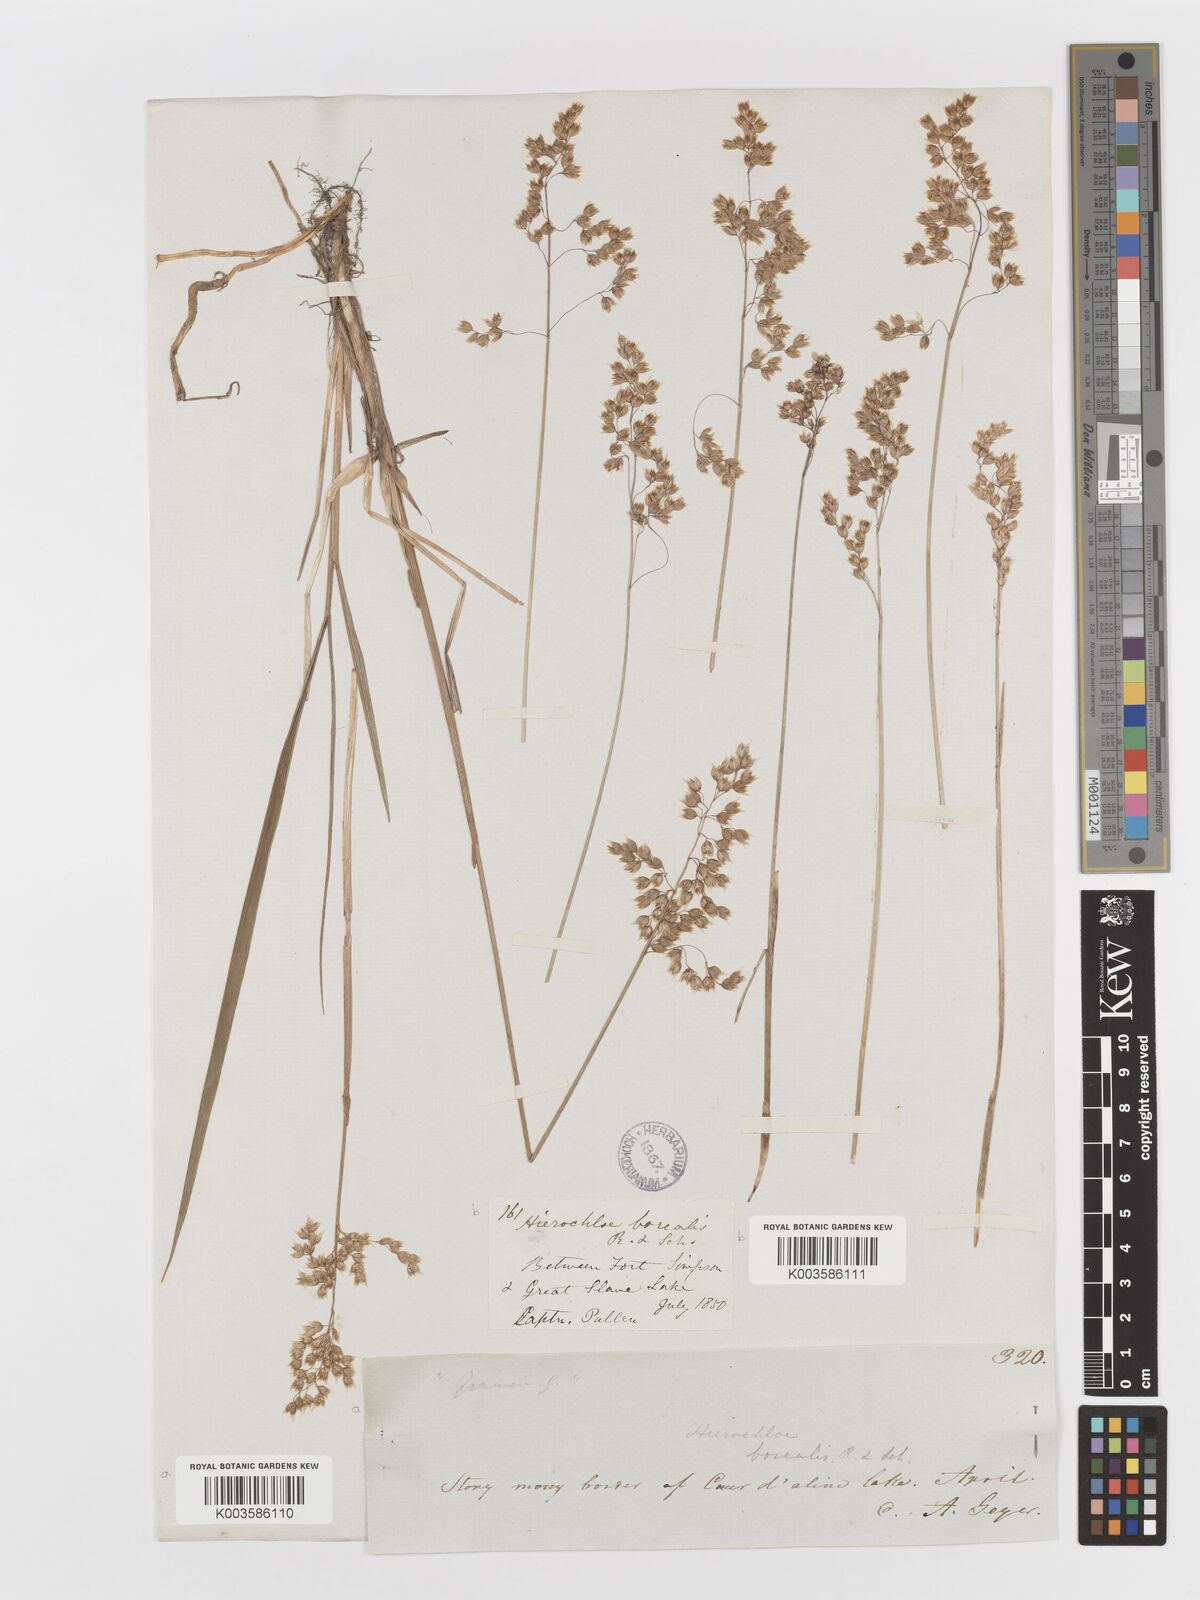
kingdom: Plantae
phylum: Tracheophyta
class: Liliopsida
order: Poales
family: Poaceae
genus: Anthoxanthum
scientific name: Anthoxanthum nitens
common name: Holy grass
